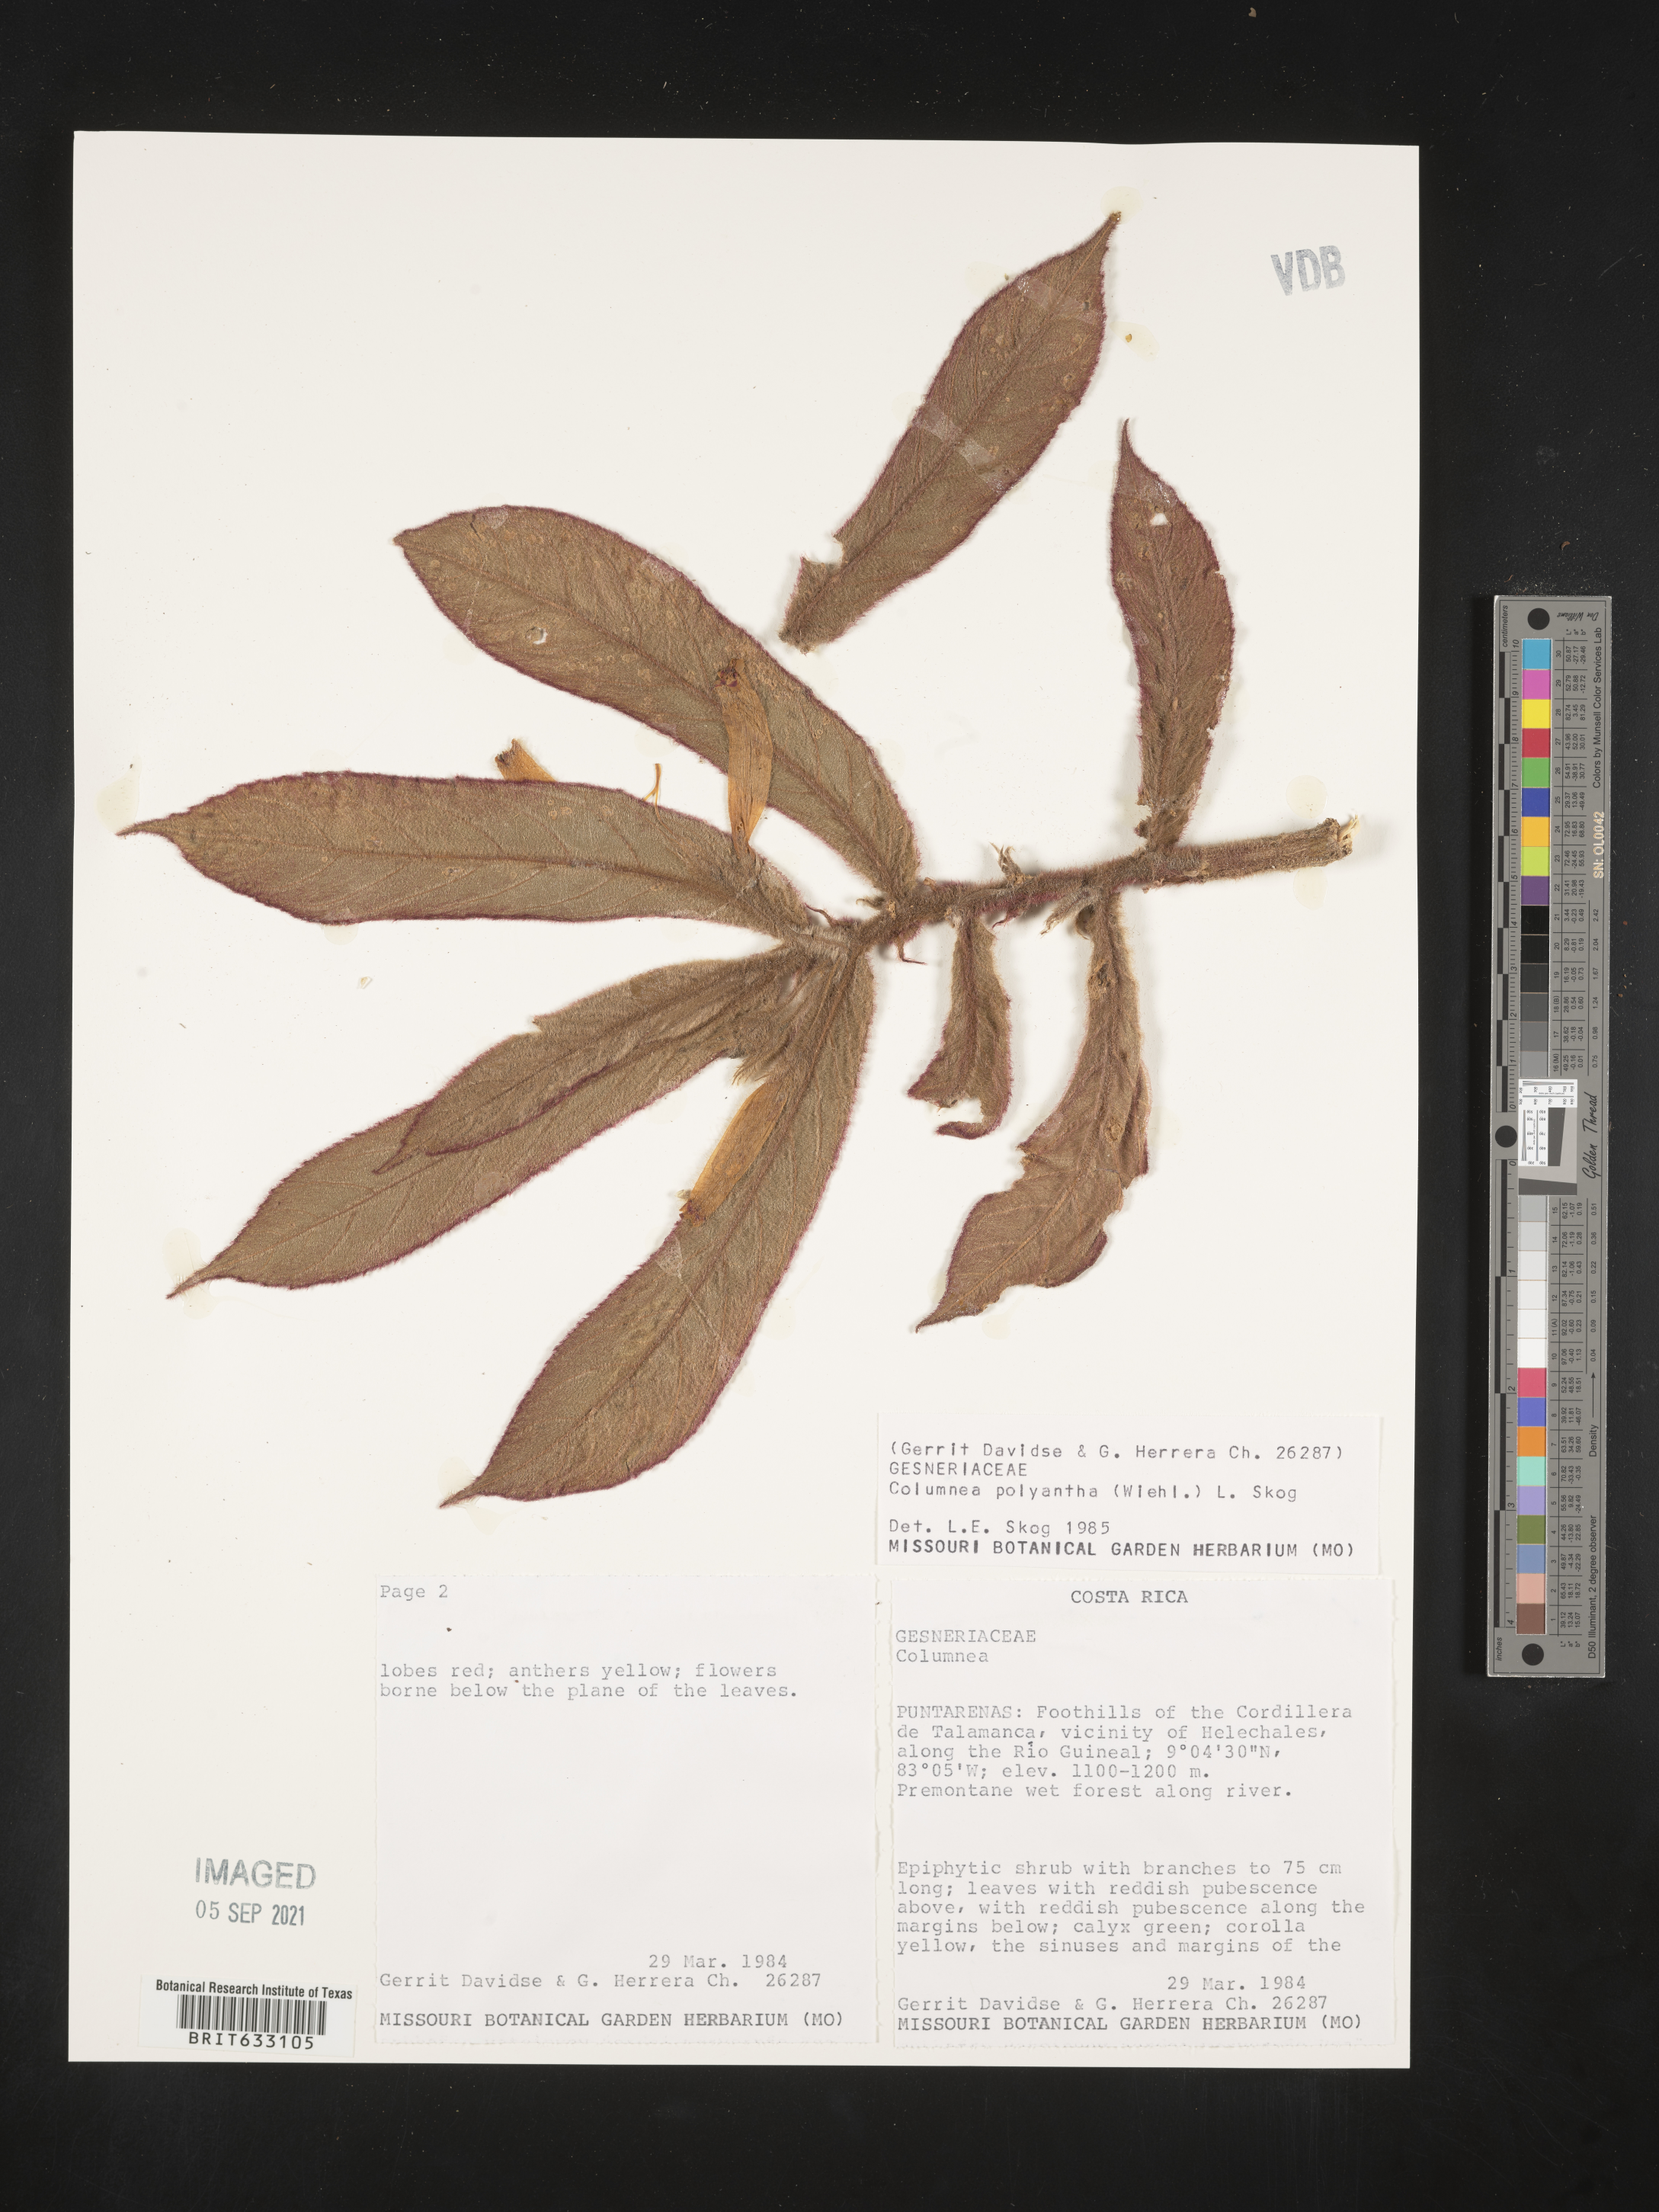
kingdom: Plantae
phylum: Tracheophyta
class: Magnoliopsida
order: Lamiales
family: Gesneriaceae
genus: Columnea
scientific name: Columnea
